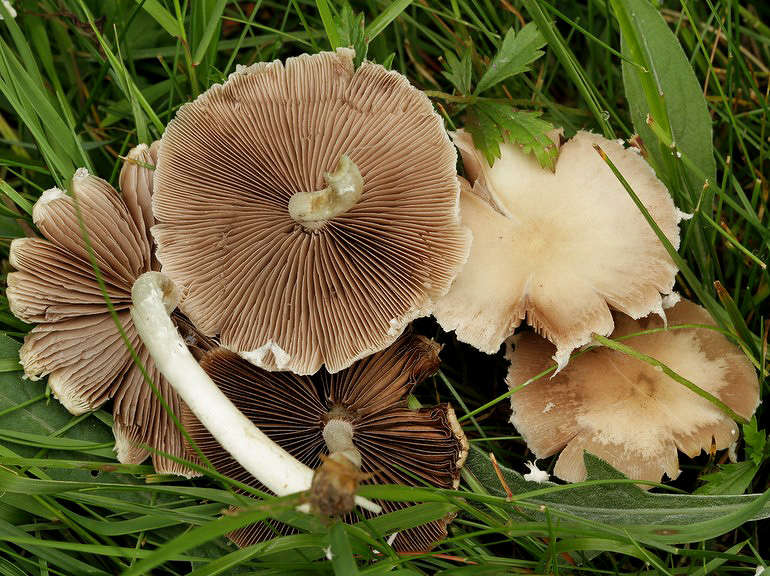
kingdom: Fungi
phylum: Basidiomycota
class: Agaricomycetes
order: Agaricales
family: Psathyrellaceae
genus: Candolleomyces
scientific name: Candolleomyces candolleanus
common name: Candolles mørkhat
